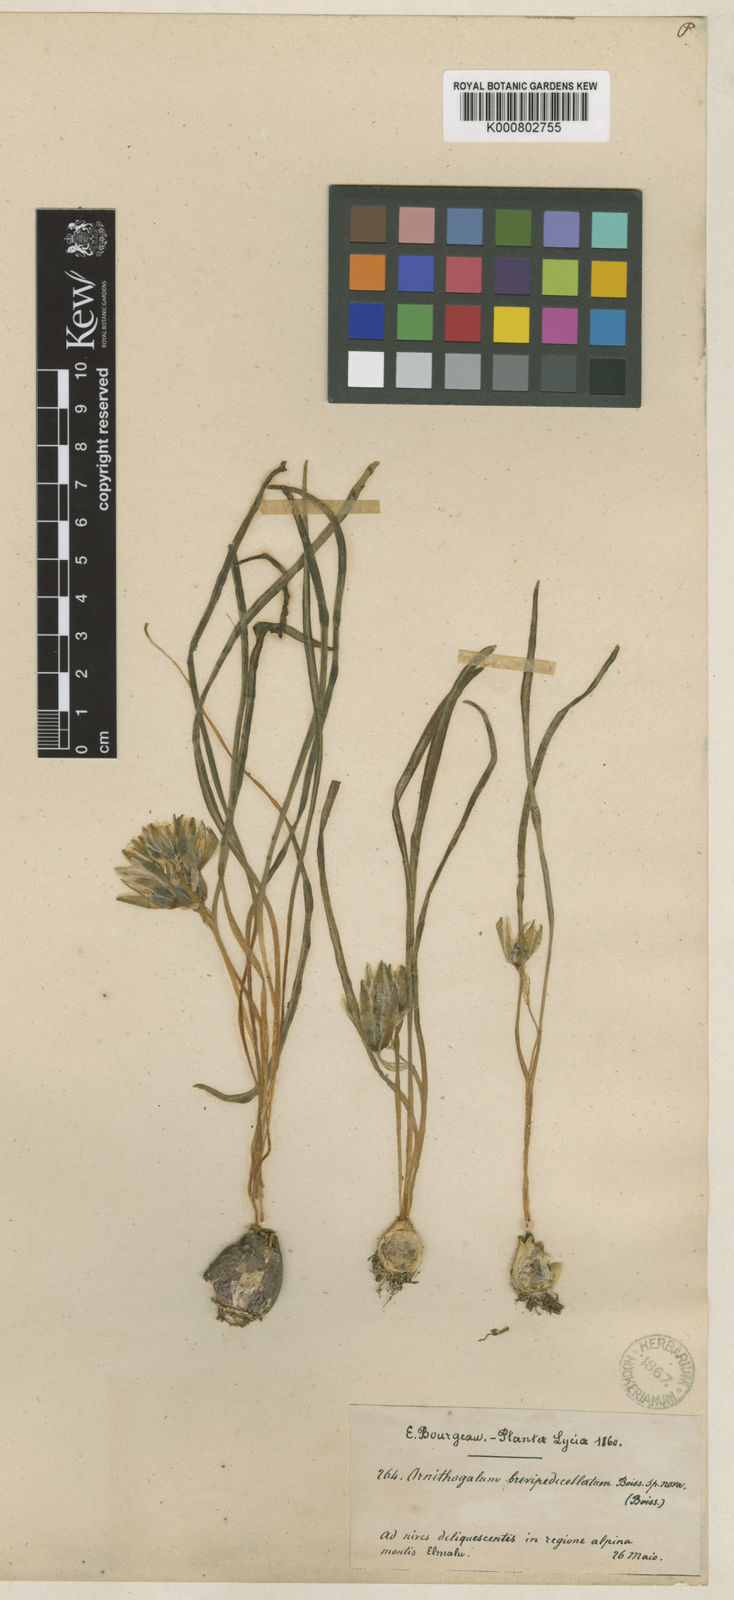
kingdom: Plantae
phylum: Tracheophyta
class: Liliopsida
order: Asparagales
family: Asparagaceae
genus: Ornithogalum
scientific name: Ornithogalum oligophyllum
